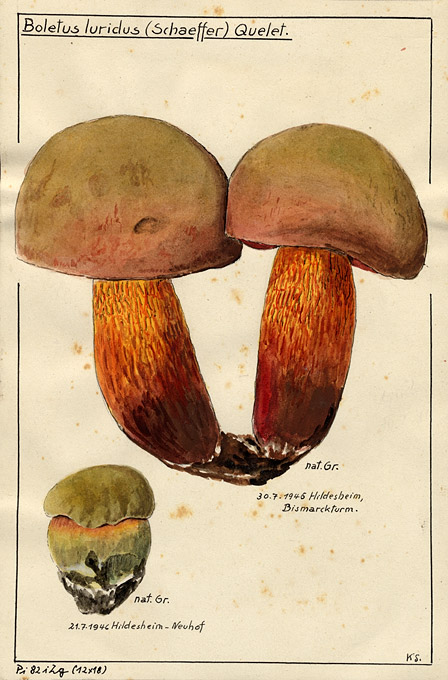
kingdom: Fungi
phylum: Basidiomycota
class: Agaricomycetes
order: Boletales
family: Boletaceae
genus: Suillellus
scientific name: Suillellus luridus
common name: Lurid bolete
